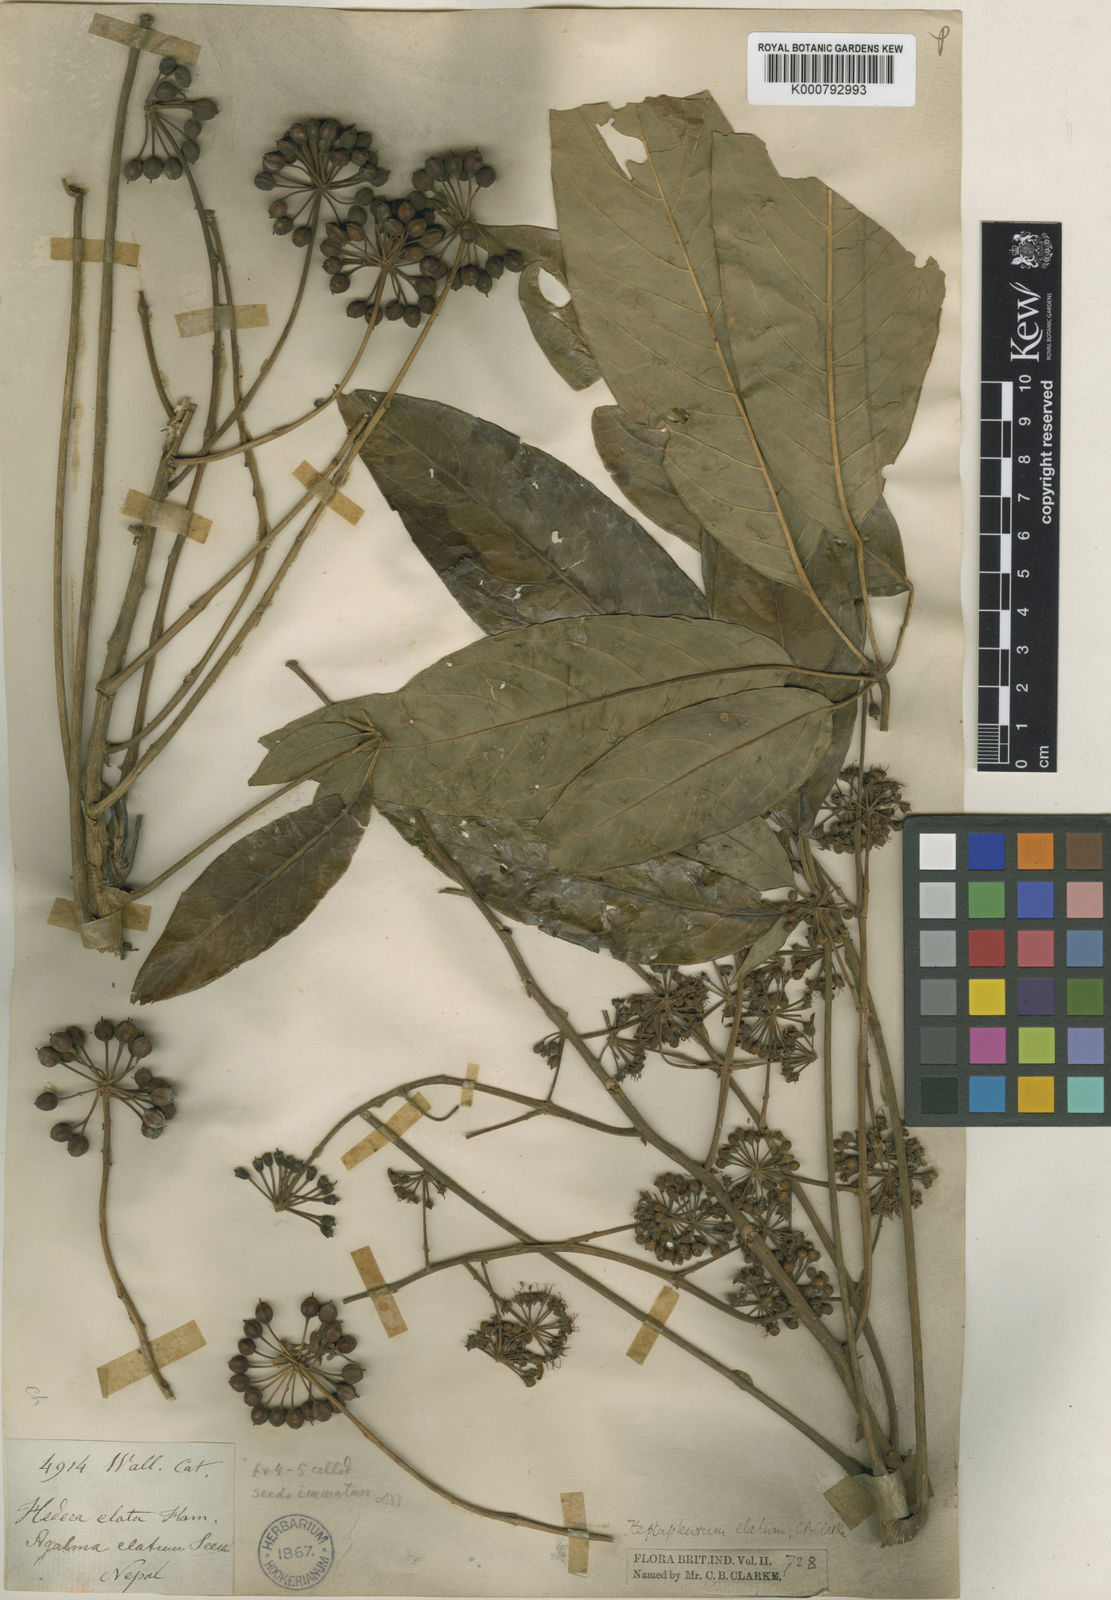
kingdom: Plantae
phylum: Tracheophyta
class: Magnoliopsida
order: Apiales
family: Araliaceae
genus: Heptapleurum
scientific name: Heptapleurum elatum
